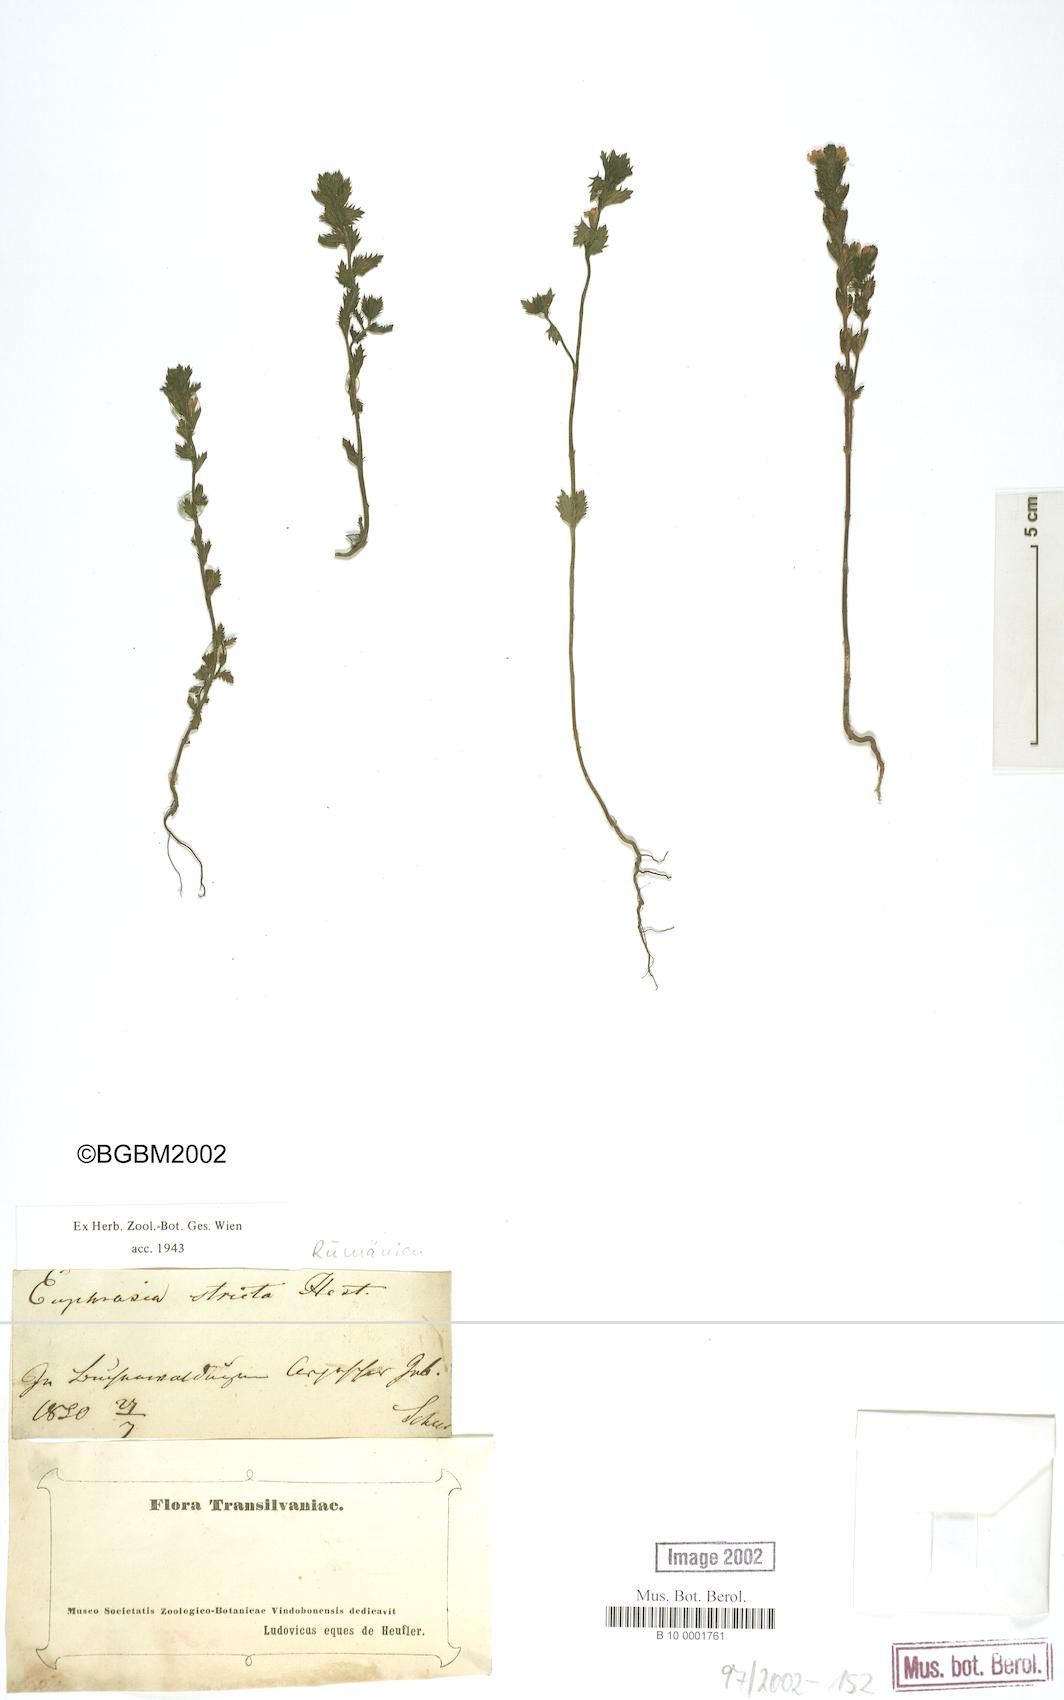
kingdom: Plantae
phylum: Tracheophyta
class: Magnoliopsida
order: Lamiales
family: Orobanchaceae
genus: Euphrasia
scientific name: Euphrasia stricta
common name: Drug eyebright
